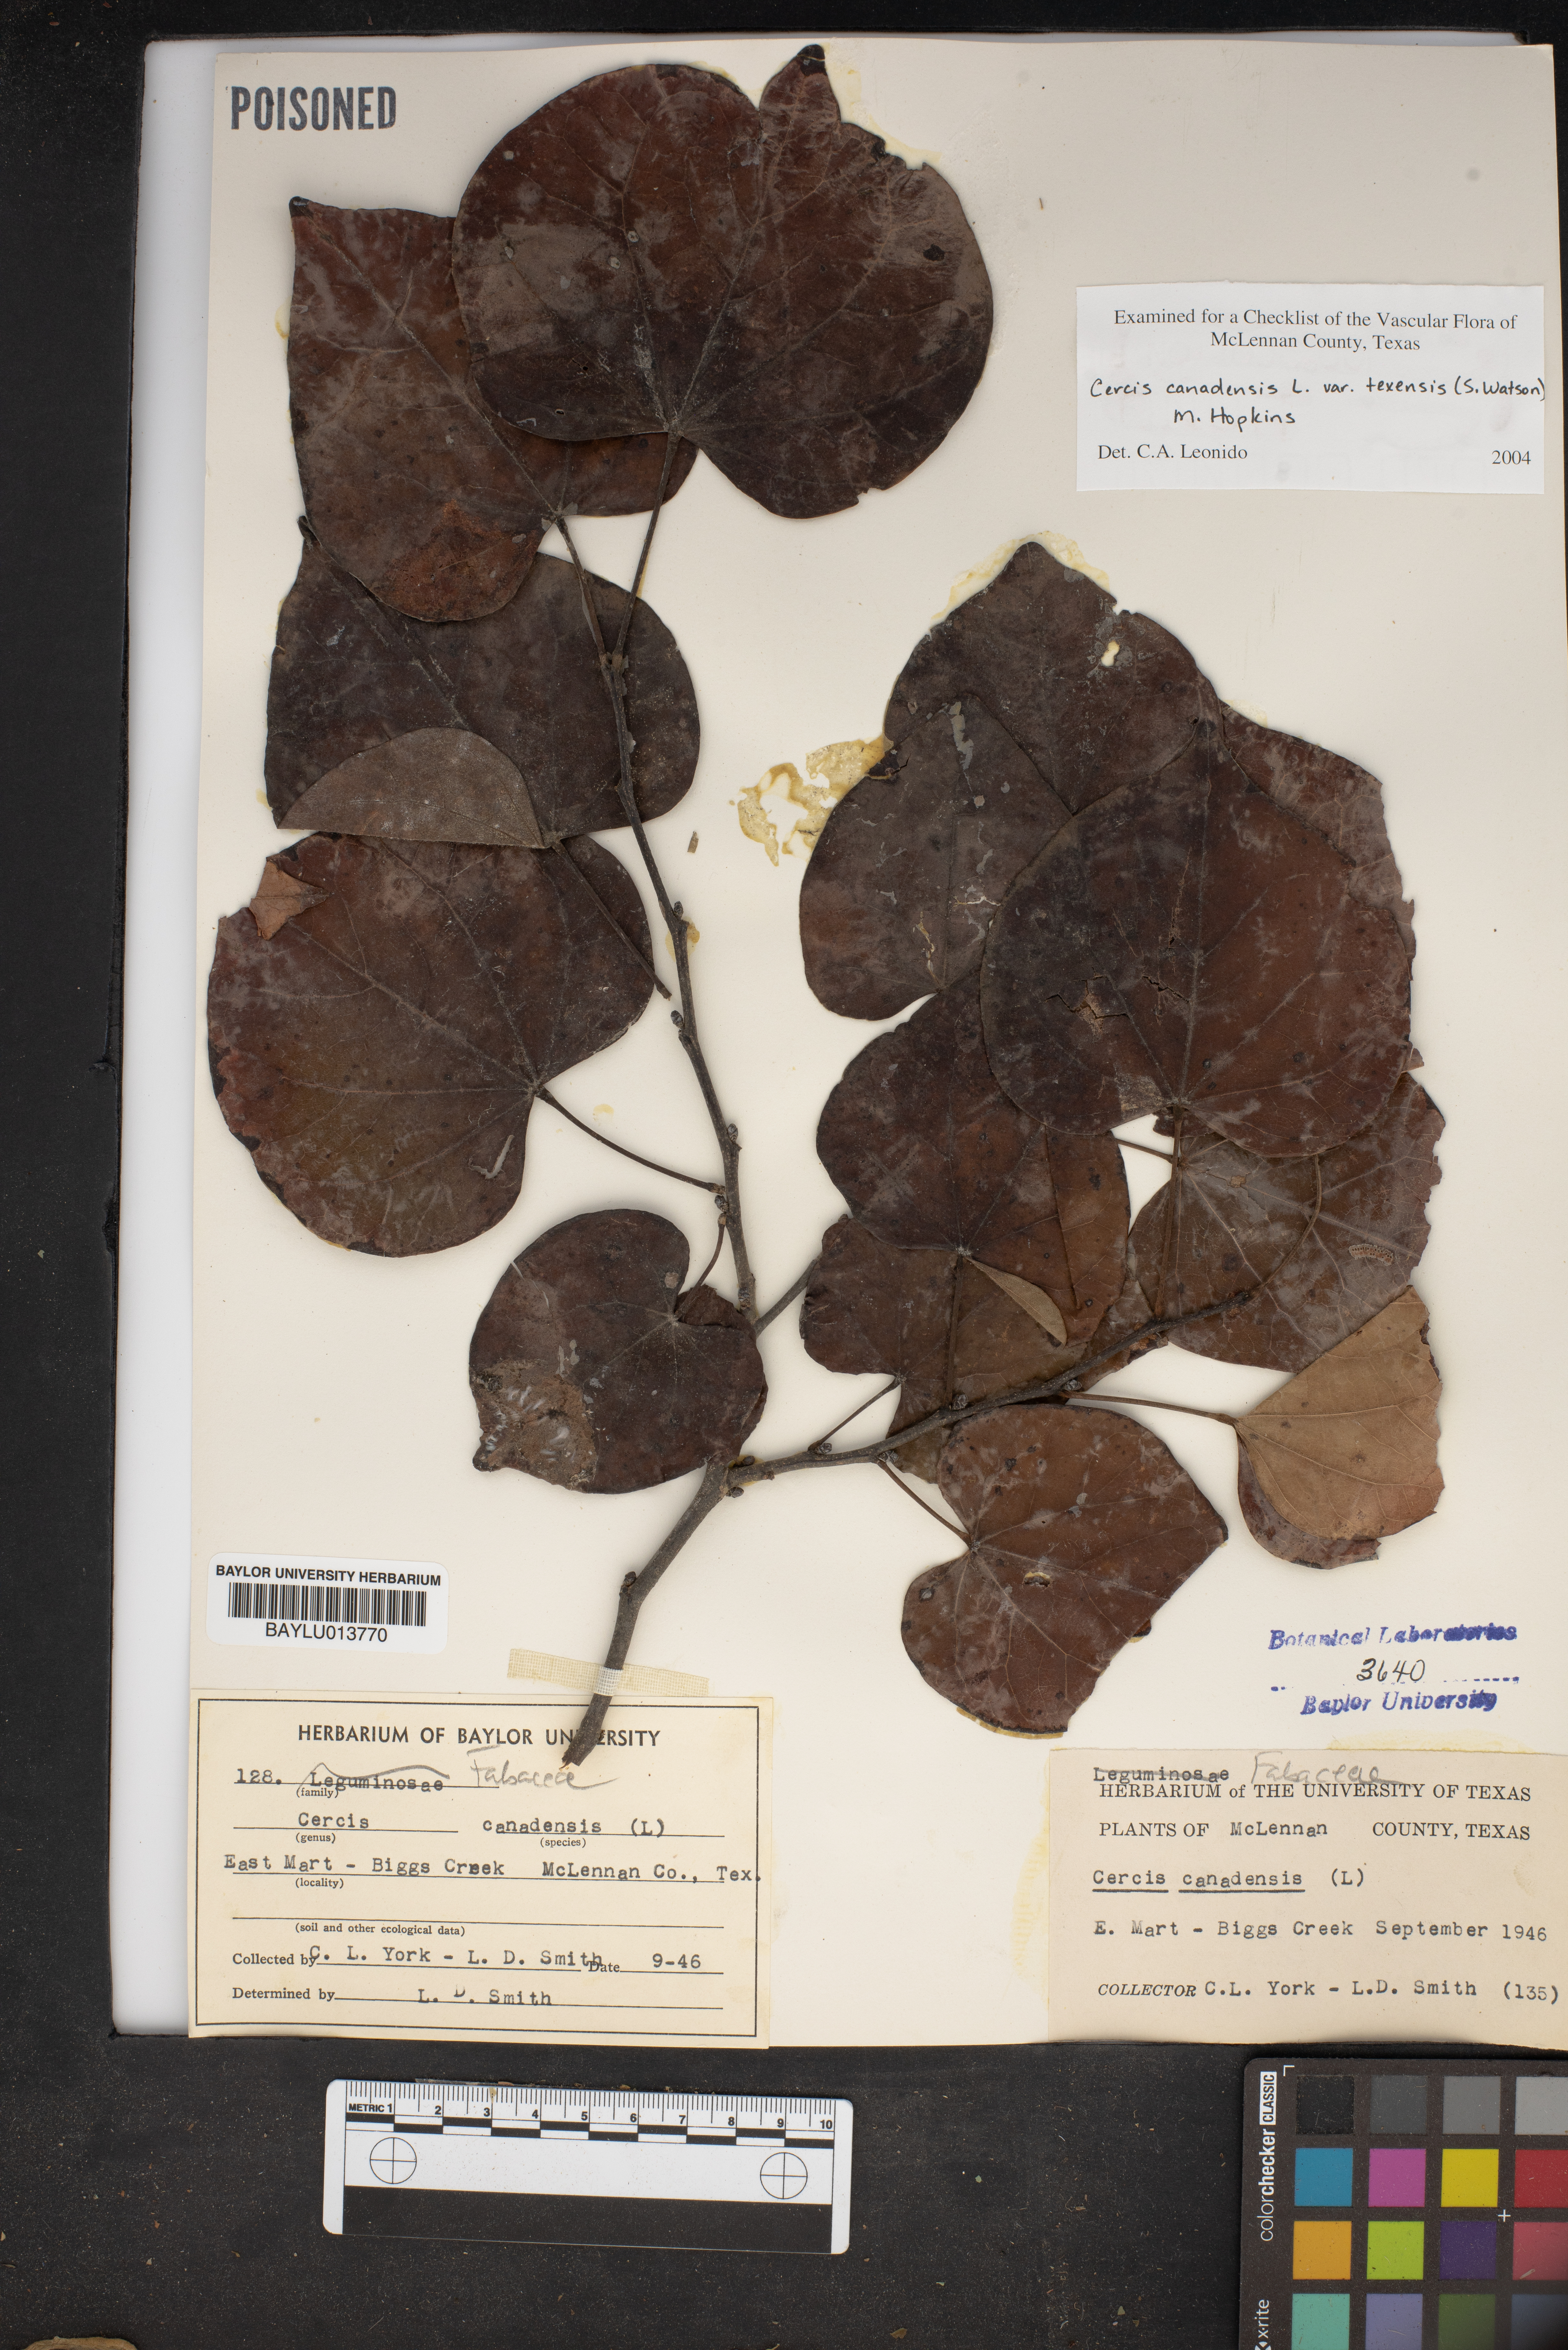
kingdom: Plantae
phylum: Tracheophyta
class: Magnoliopsida
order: Fabales
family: Fabaceae
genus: Cercis
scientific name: Cercis canadensis
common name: Eastern redbud
